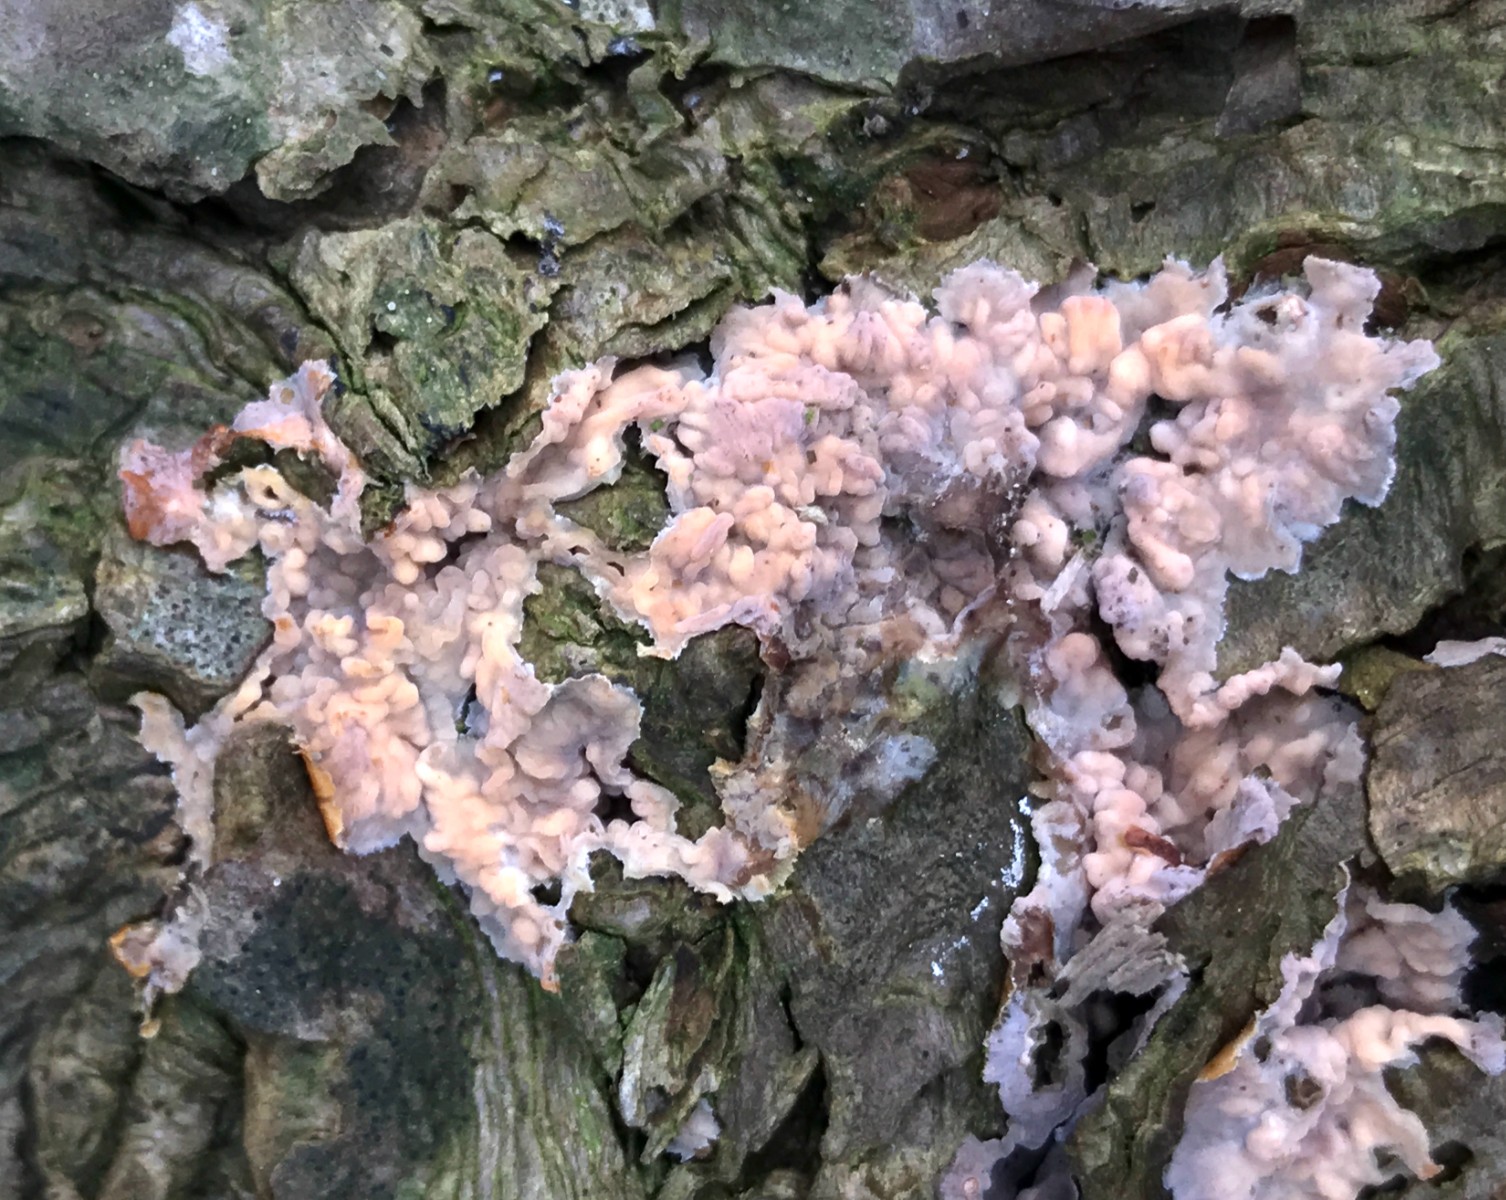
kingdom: Fungi
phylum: Basidiomycota
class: Agaricomycetes
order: Polyporales
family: Meruliaceae
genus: Phlebia
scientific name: Phlebia radiata
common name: stråle-åresvamp
